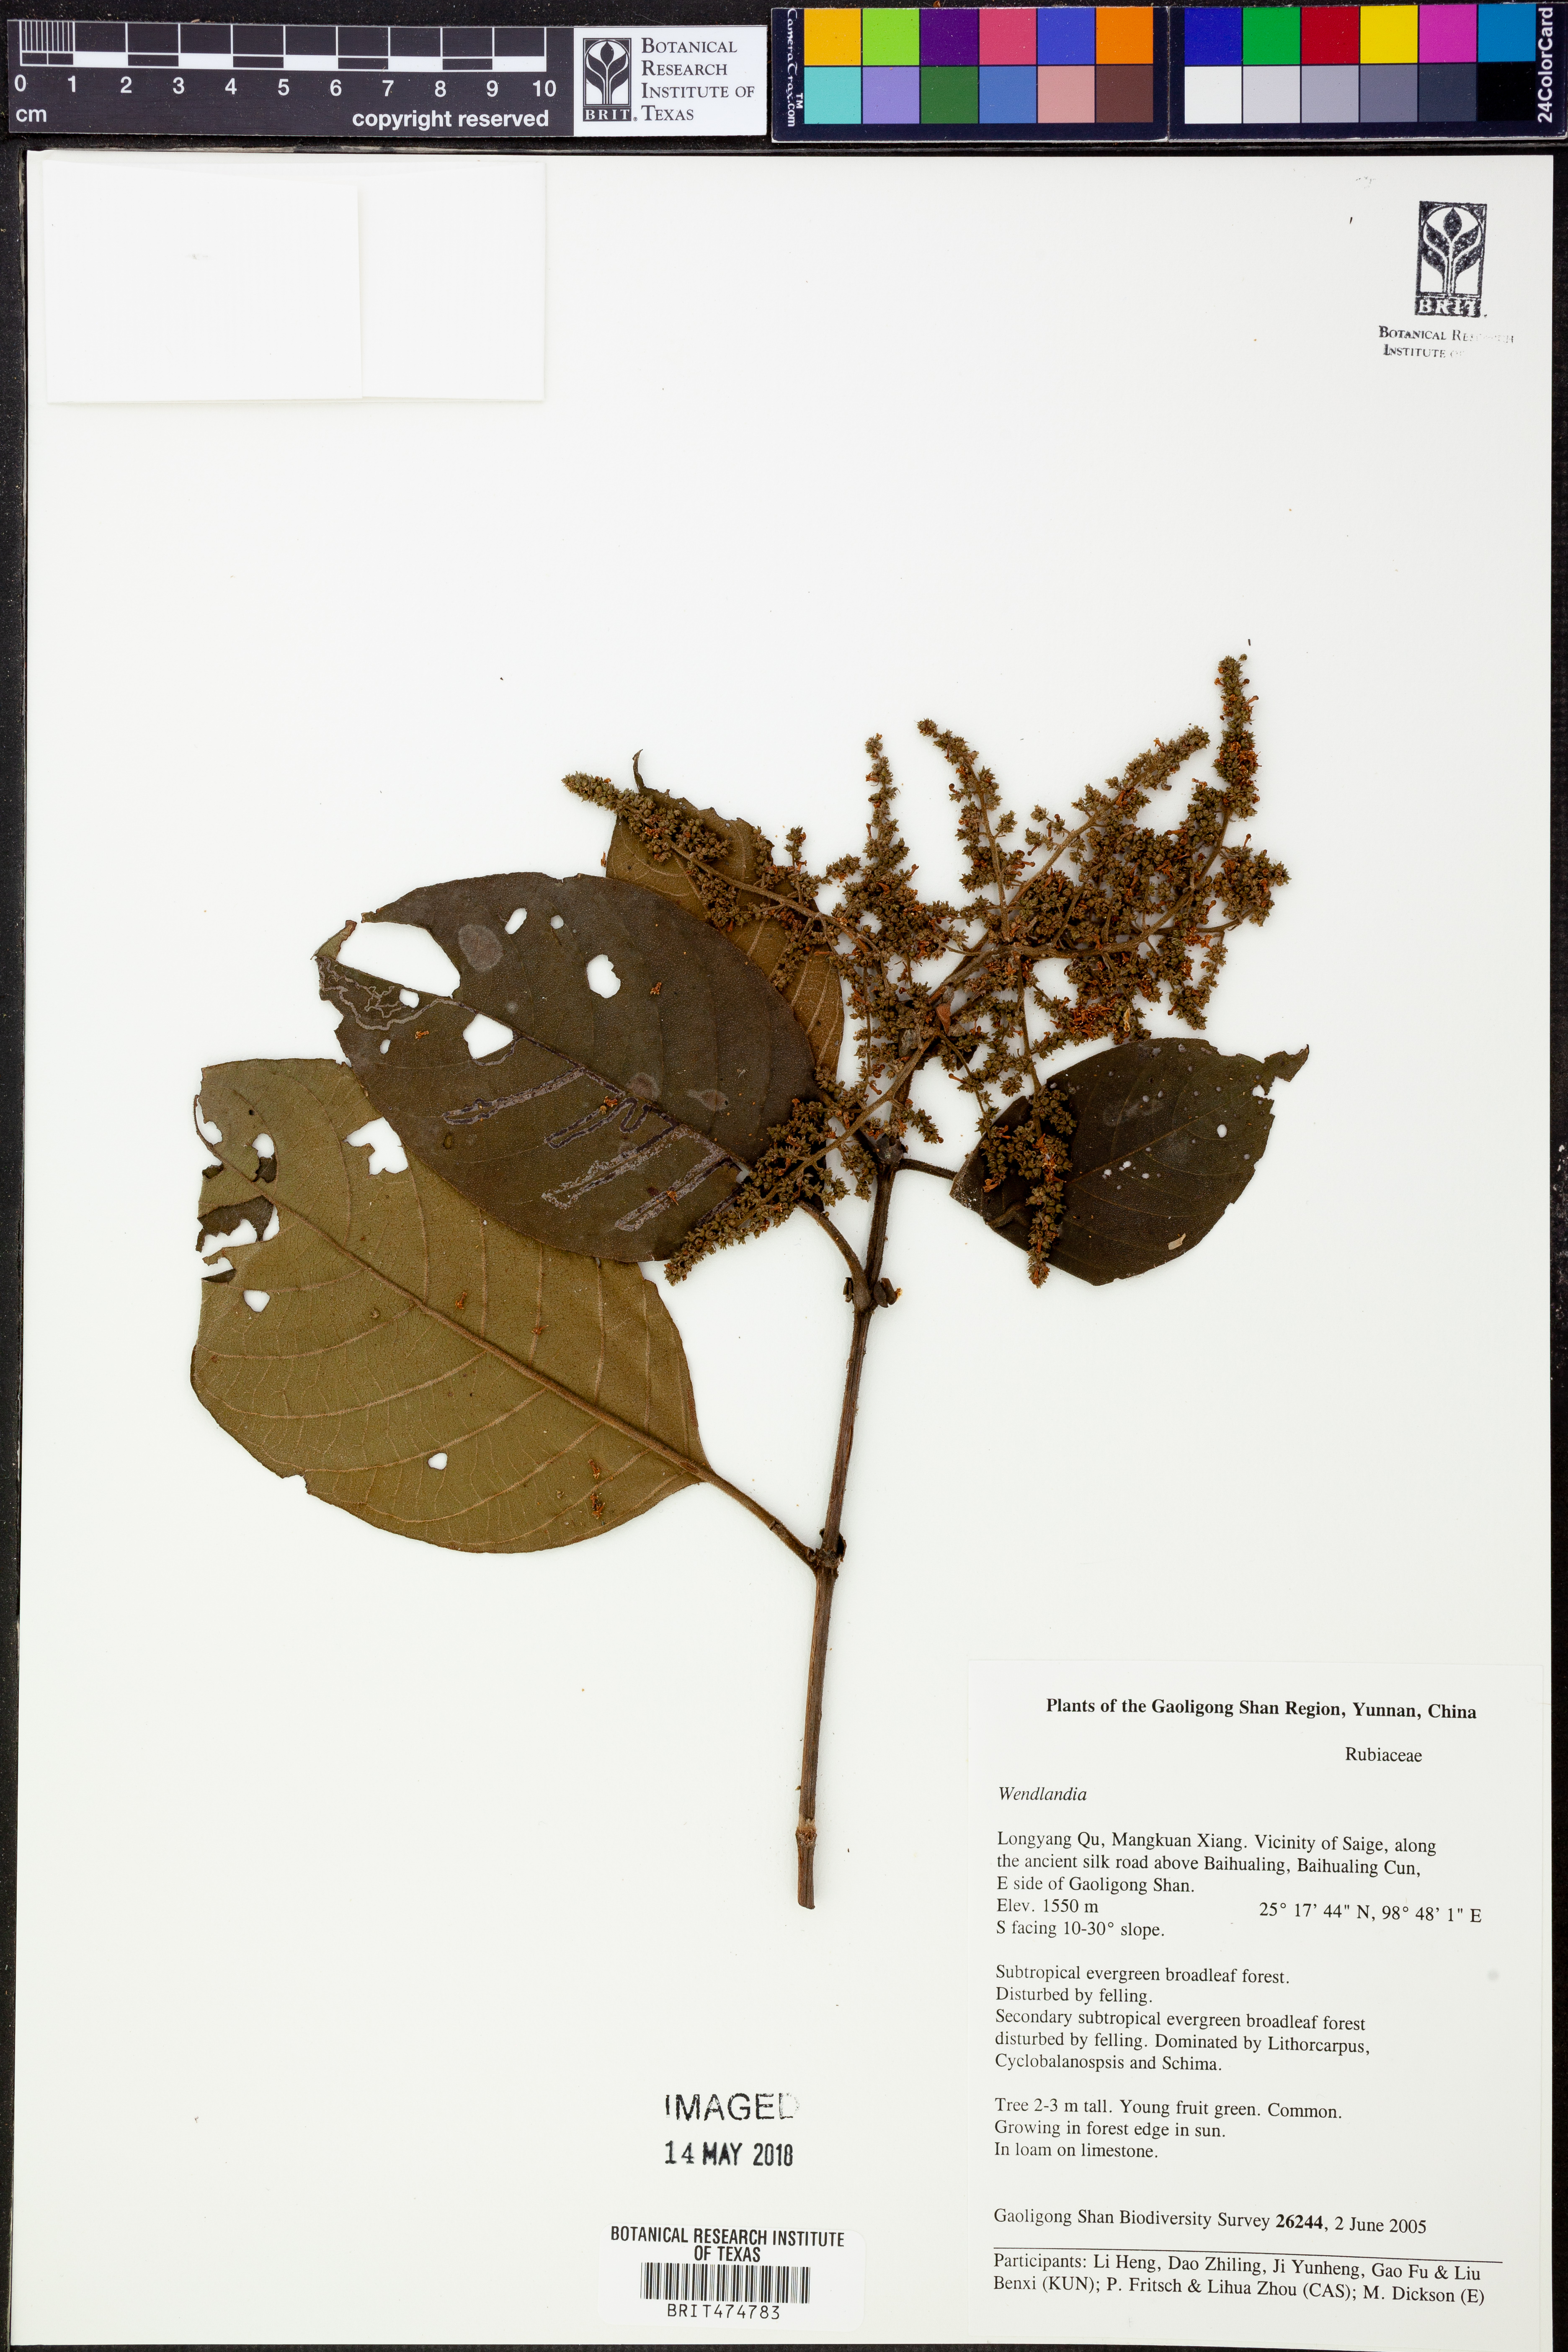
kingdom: Plantae
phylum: Tracheophyta
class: Magnoliopsida
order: Gentianales
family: Rubiaceae
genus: Wendlandia
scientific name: Wendlandia
